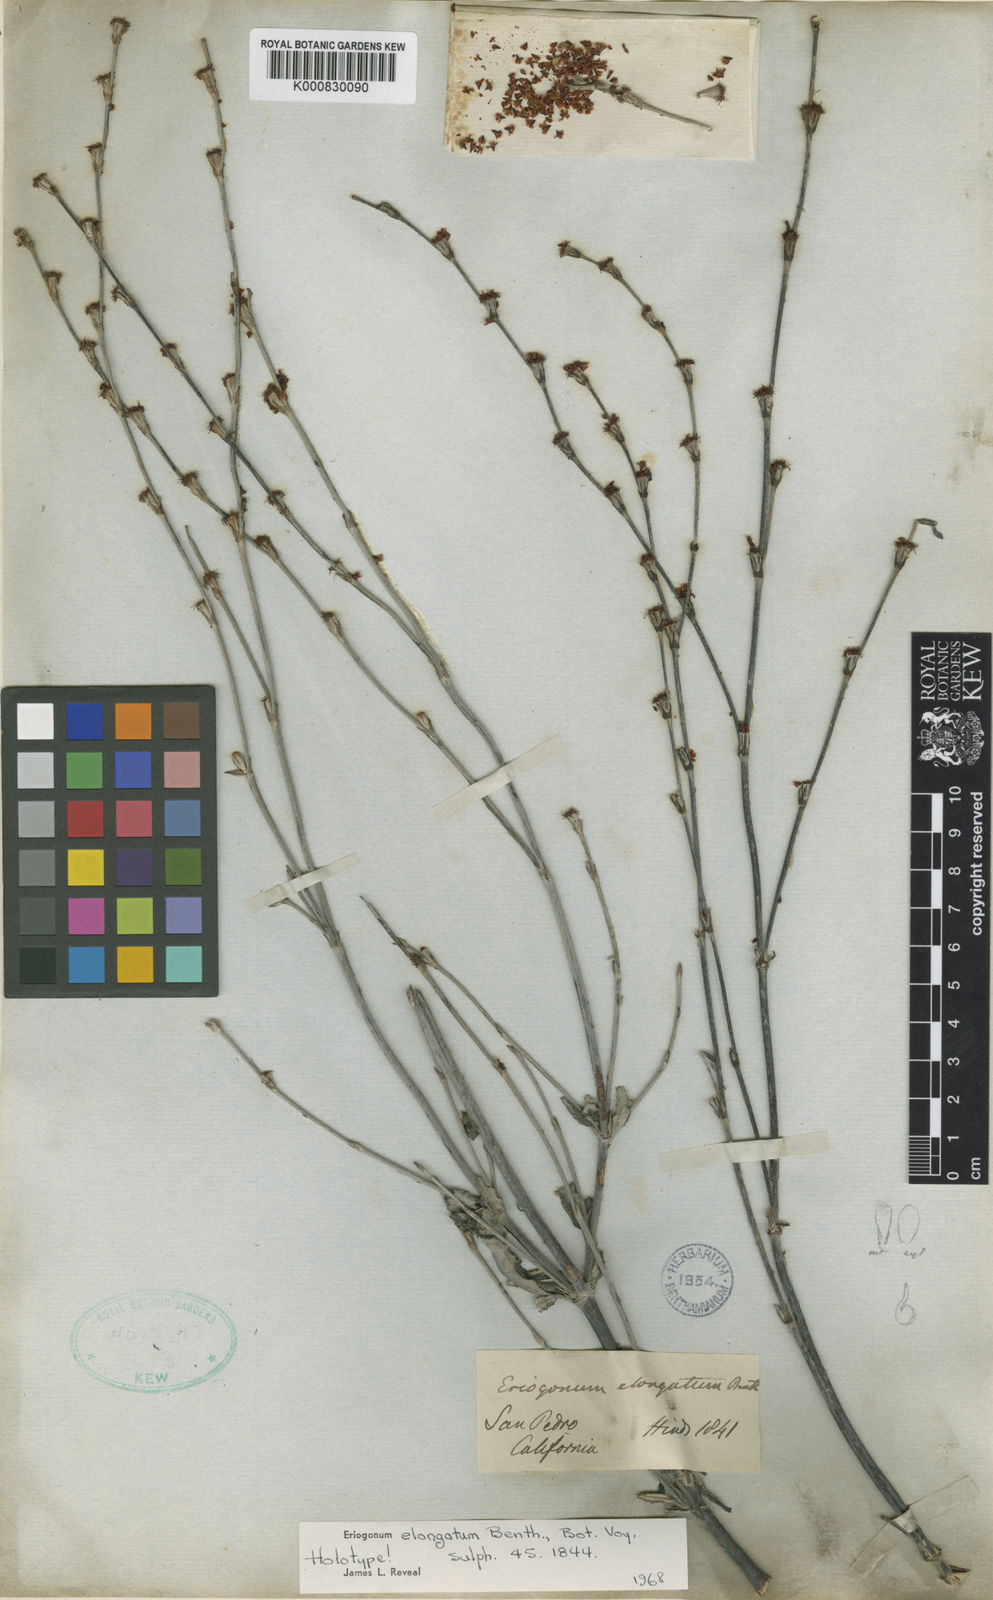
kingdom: Plantae
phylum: Tracheophyta
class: Magnoliopsida
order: Caryophyllales
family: Polygonaceae
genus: Eriogonum
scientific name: Eriogonum elongatum
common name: Long-stem wild buckwheat
